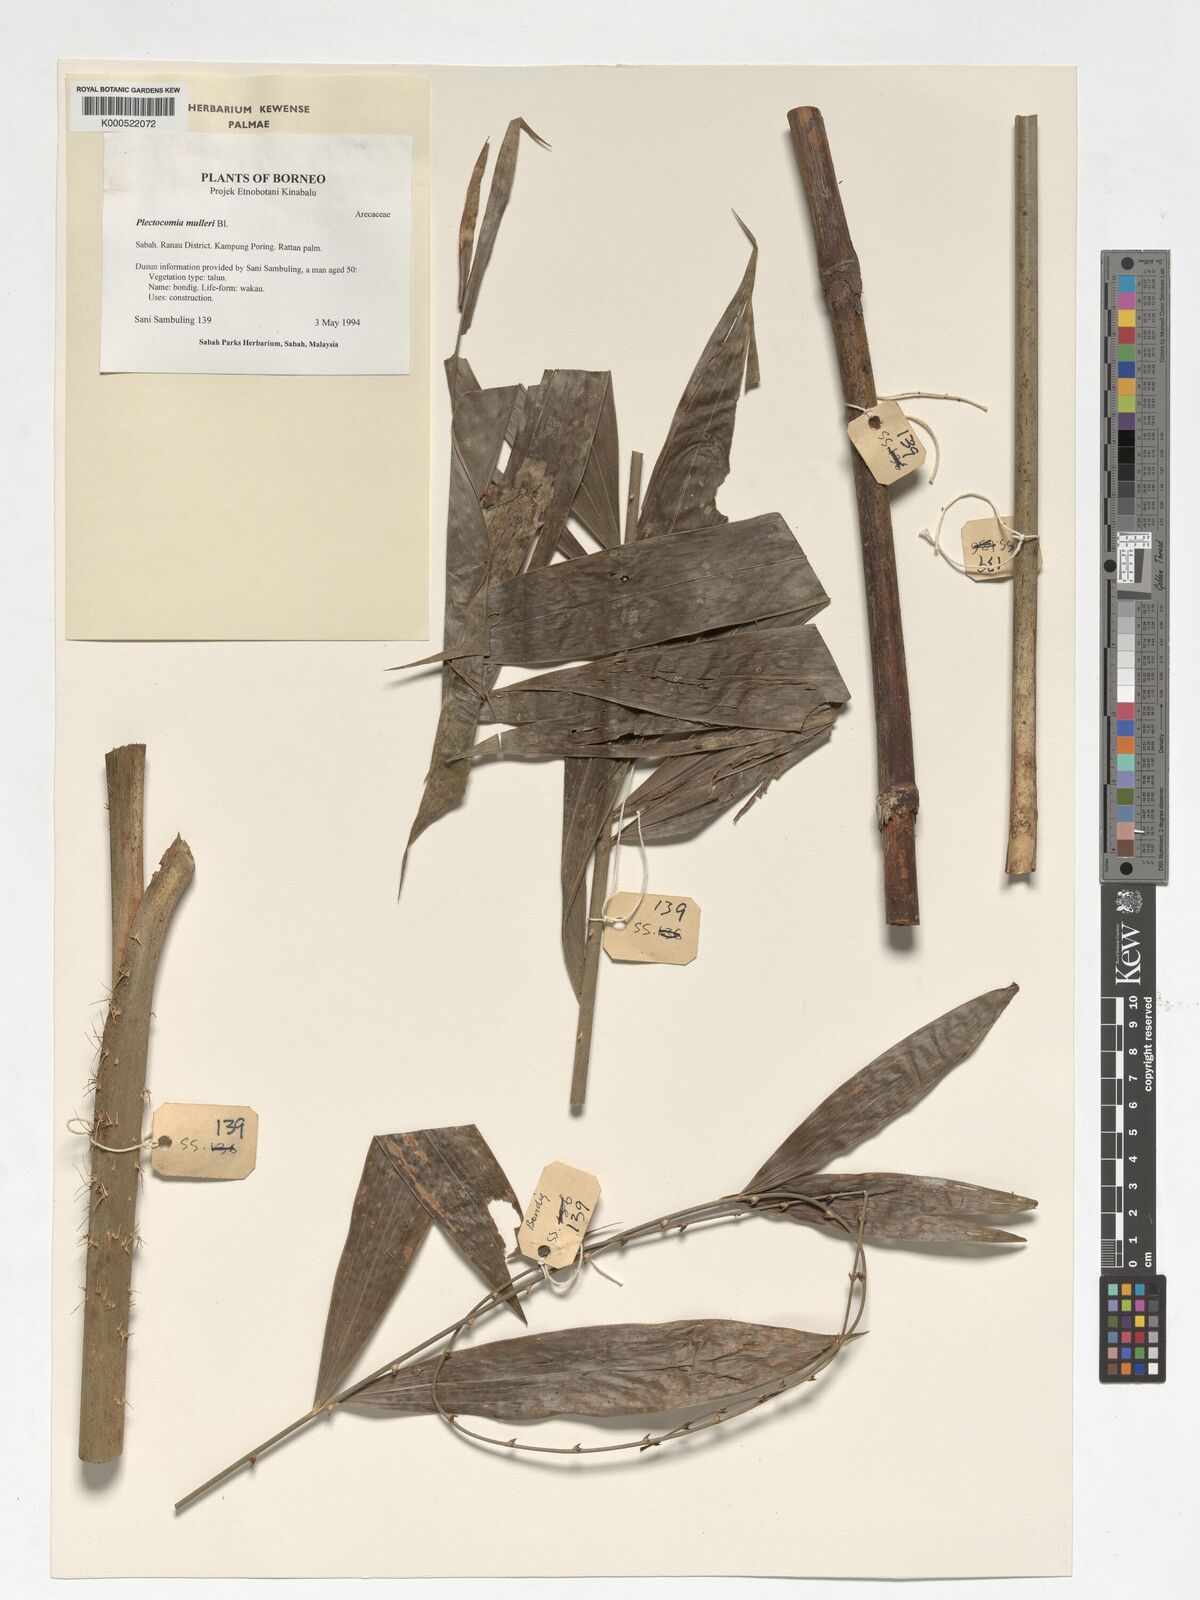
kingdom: Plantae
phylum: Tracheophyta
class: Liliopsida
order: Arecales
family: Arecaceae
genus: Plectocomia
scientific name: Plectocomia mulleri
